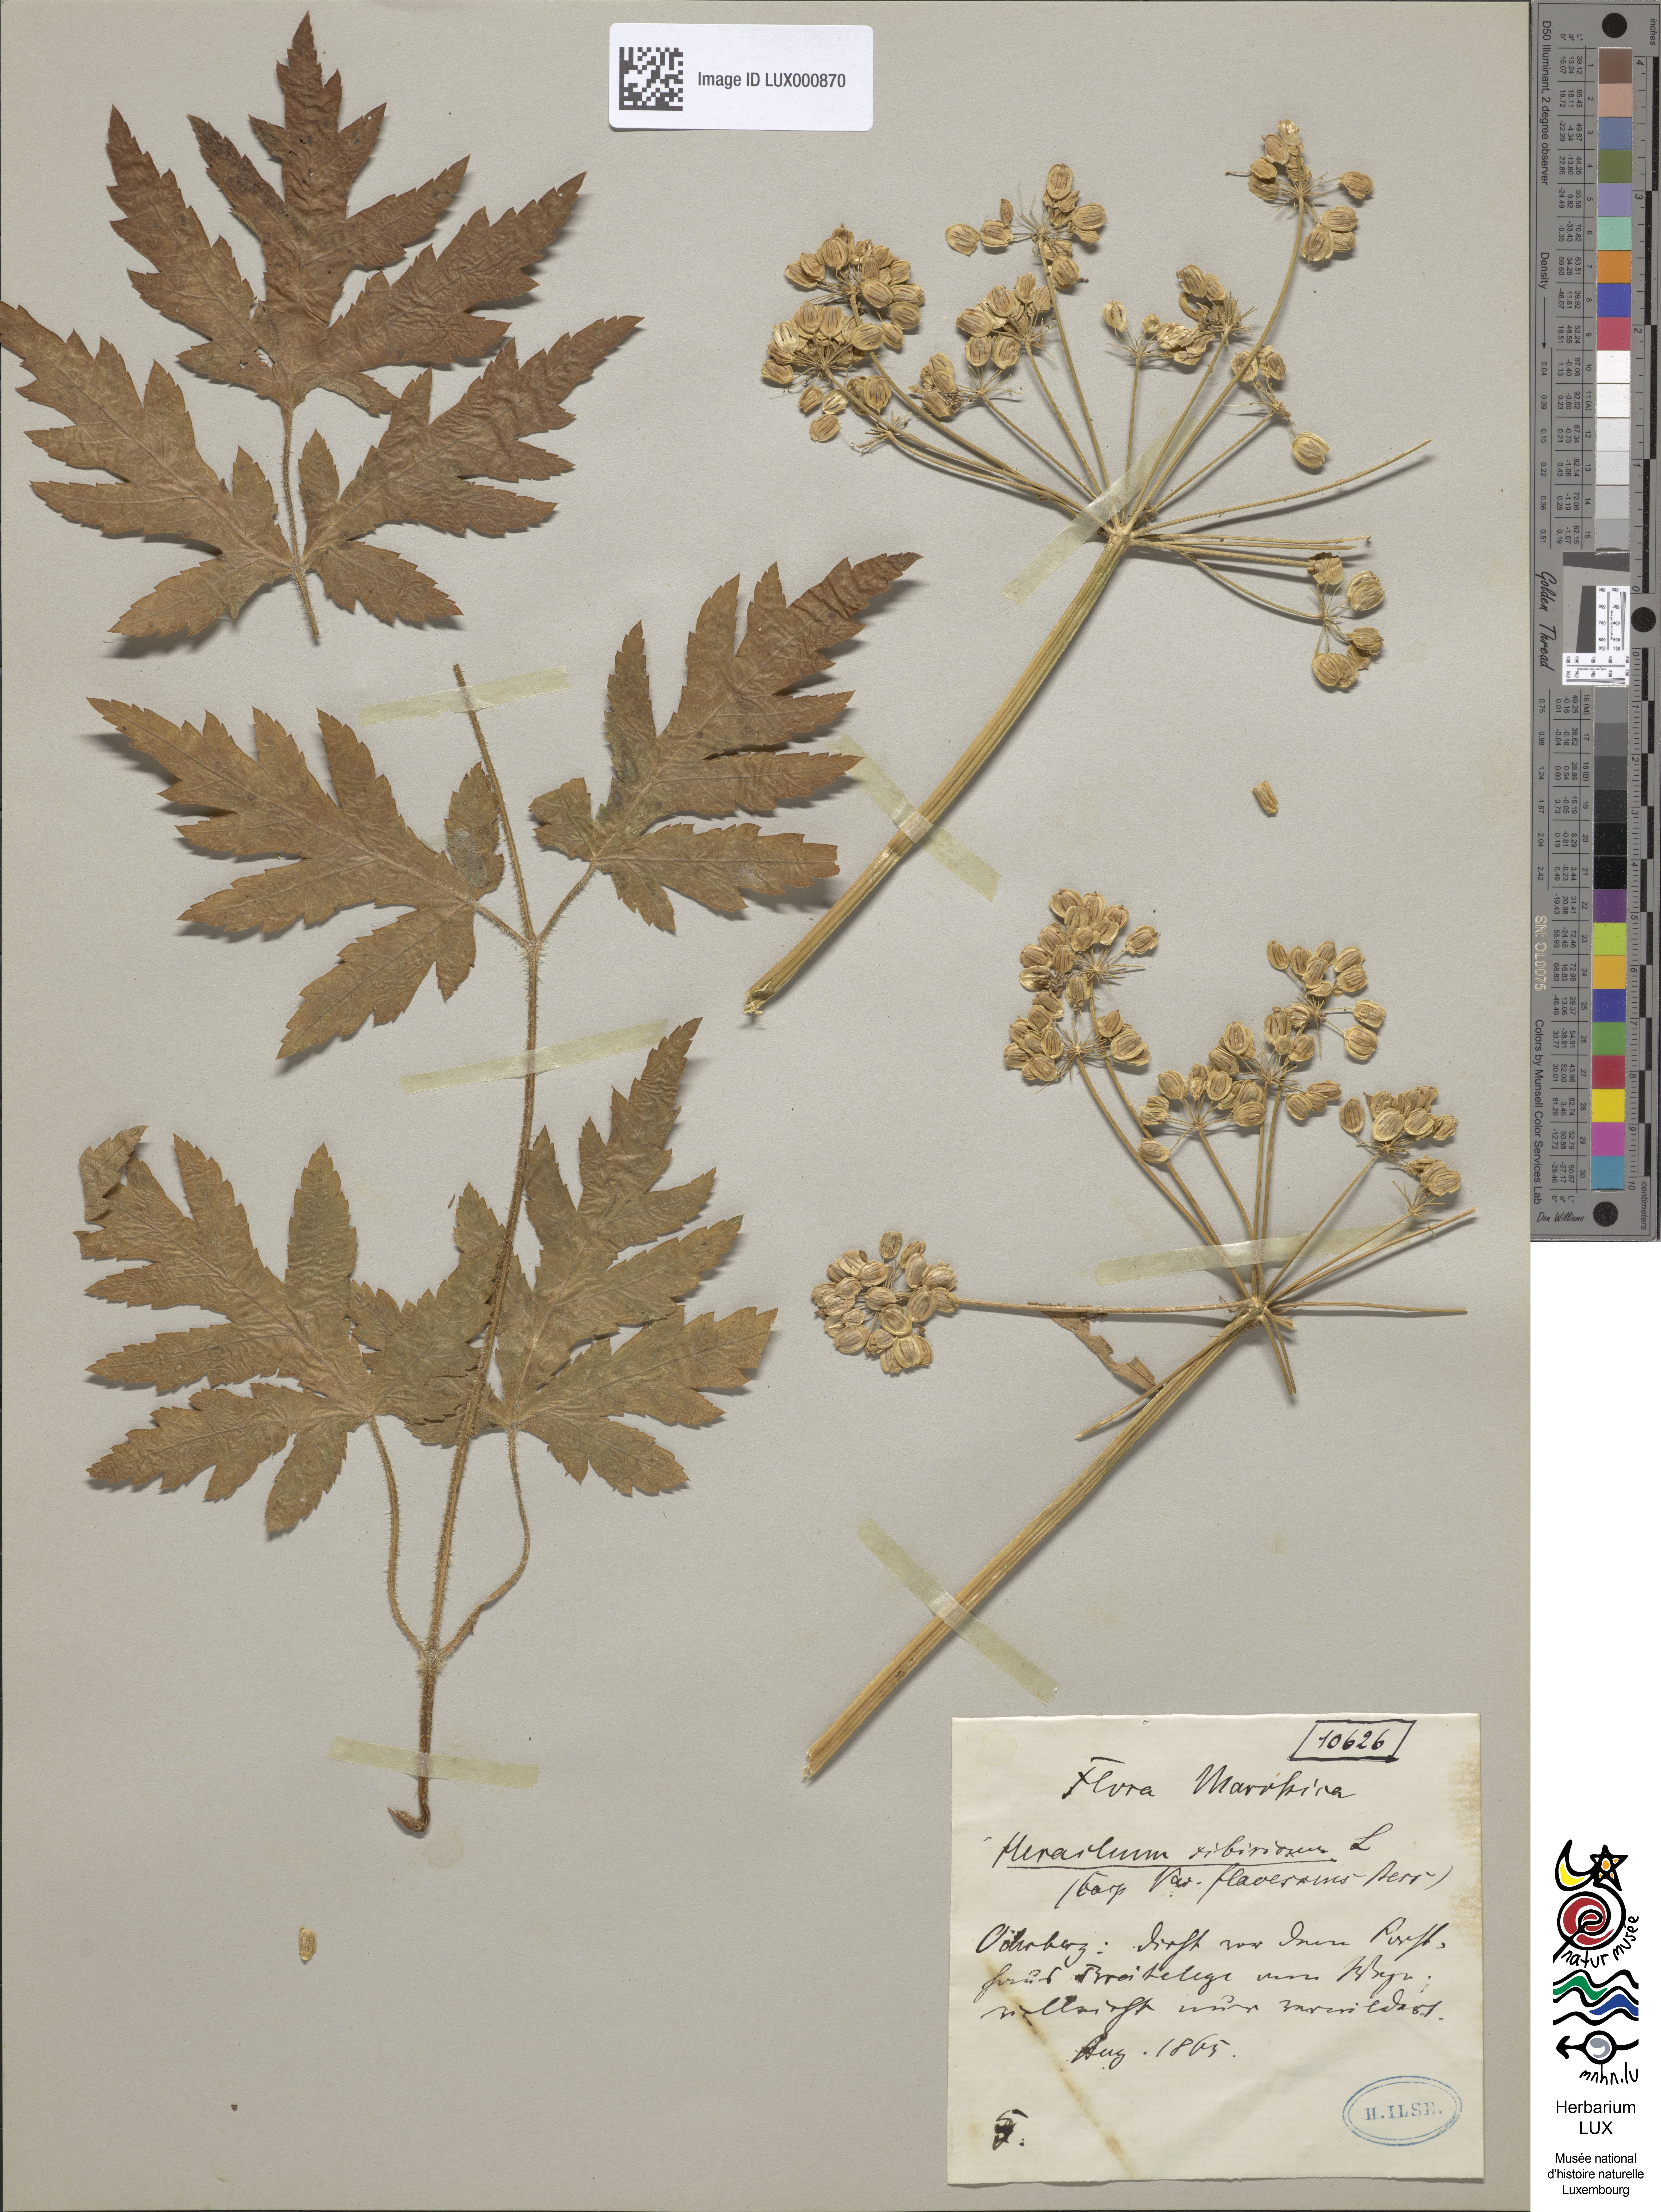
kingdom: Plantae
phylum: Tracheophyta
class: Magnoliopsida
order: Apiales
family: Apiaceae
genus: Heracleum
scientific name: Heracleum sphondylium
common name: Hogweed
